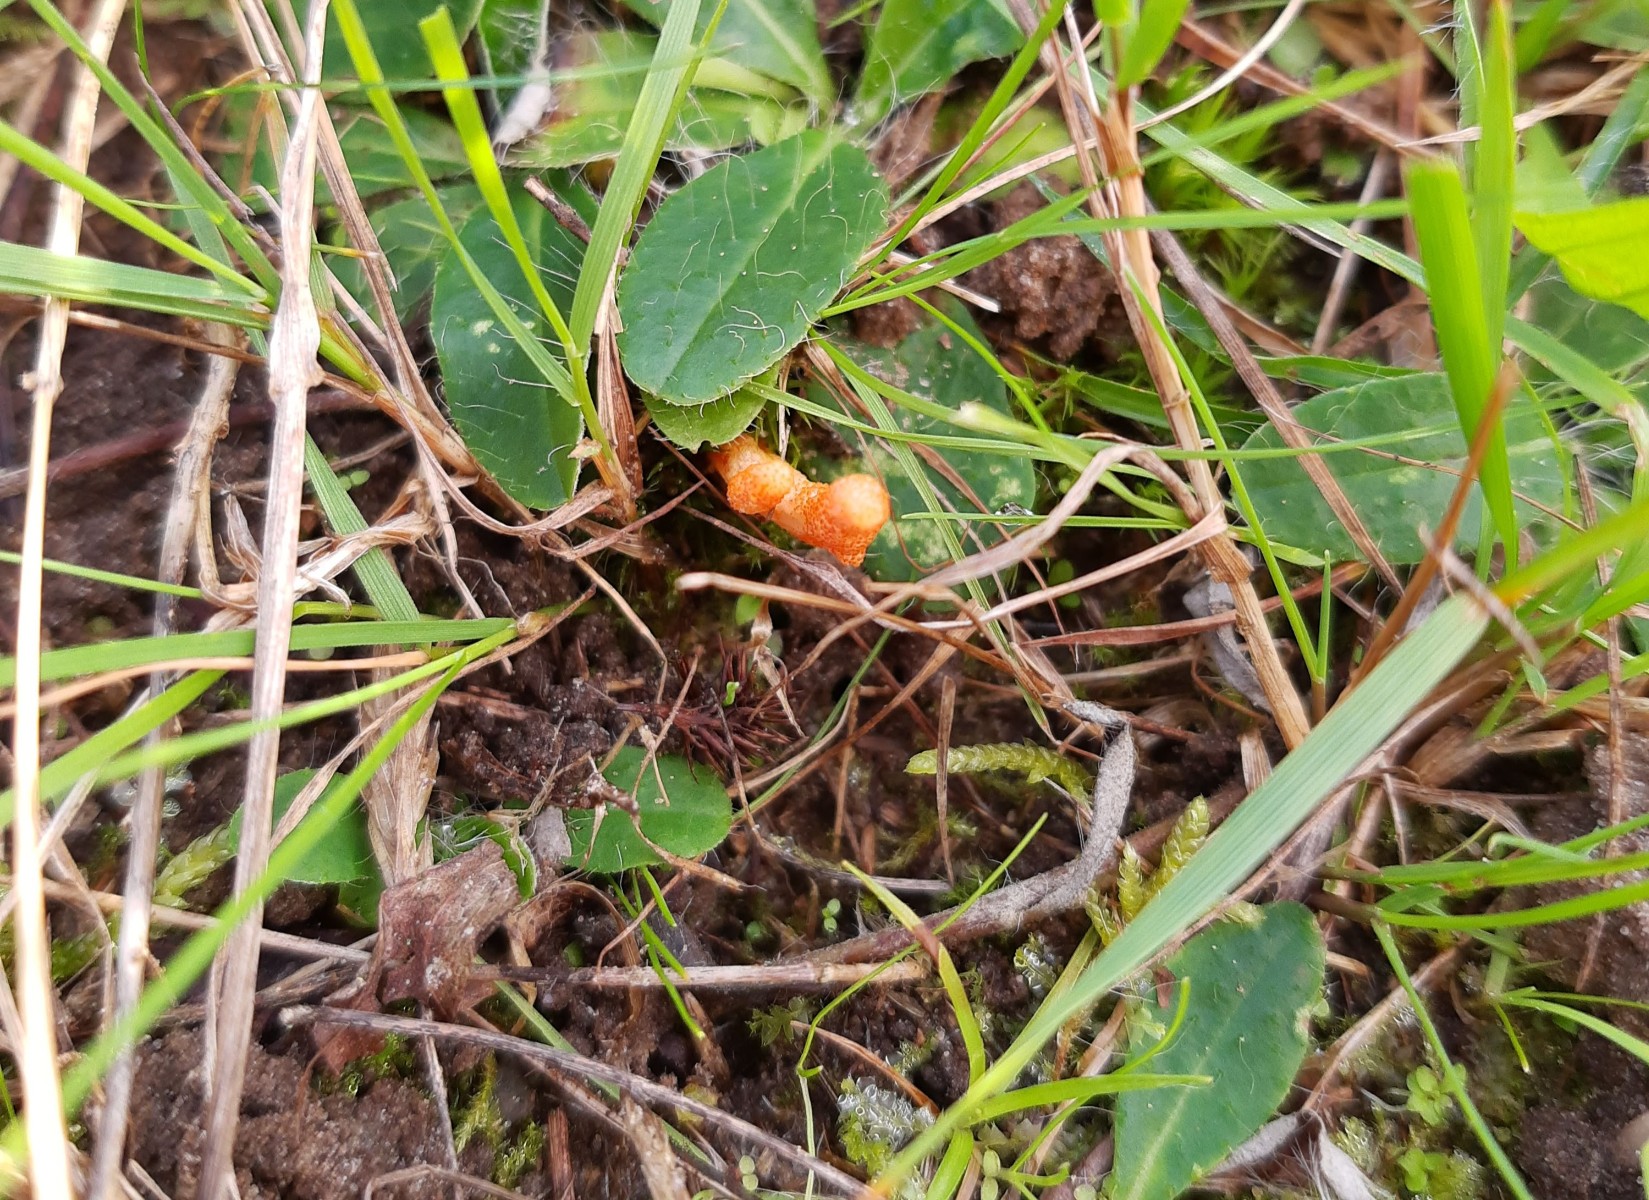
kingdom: Fungi
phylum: Ascomycota
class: Sordariomycetes
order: Hypocreales
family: Cordycipitaceae
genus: Cordyceps
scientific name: Cordyceps militaris
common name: puppe-snyltekølle
